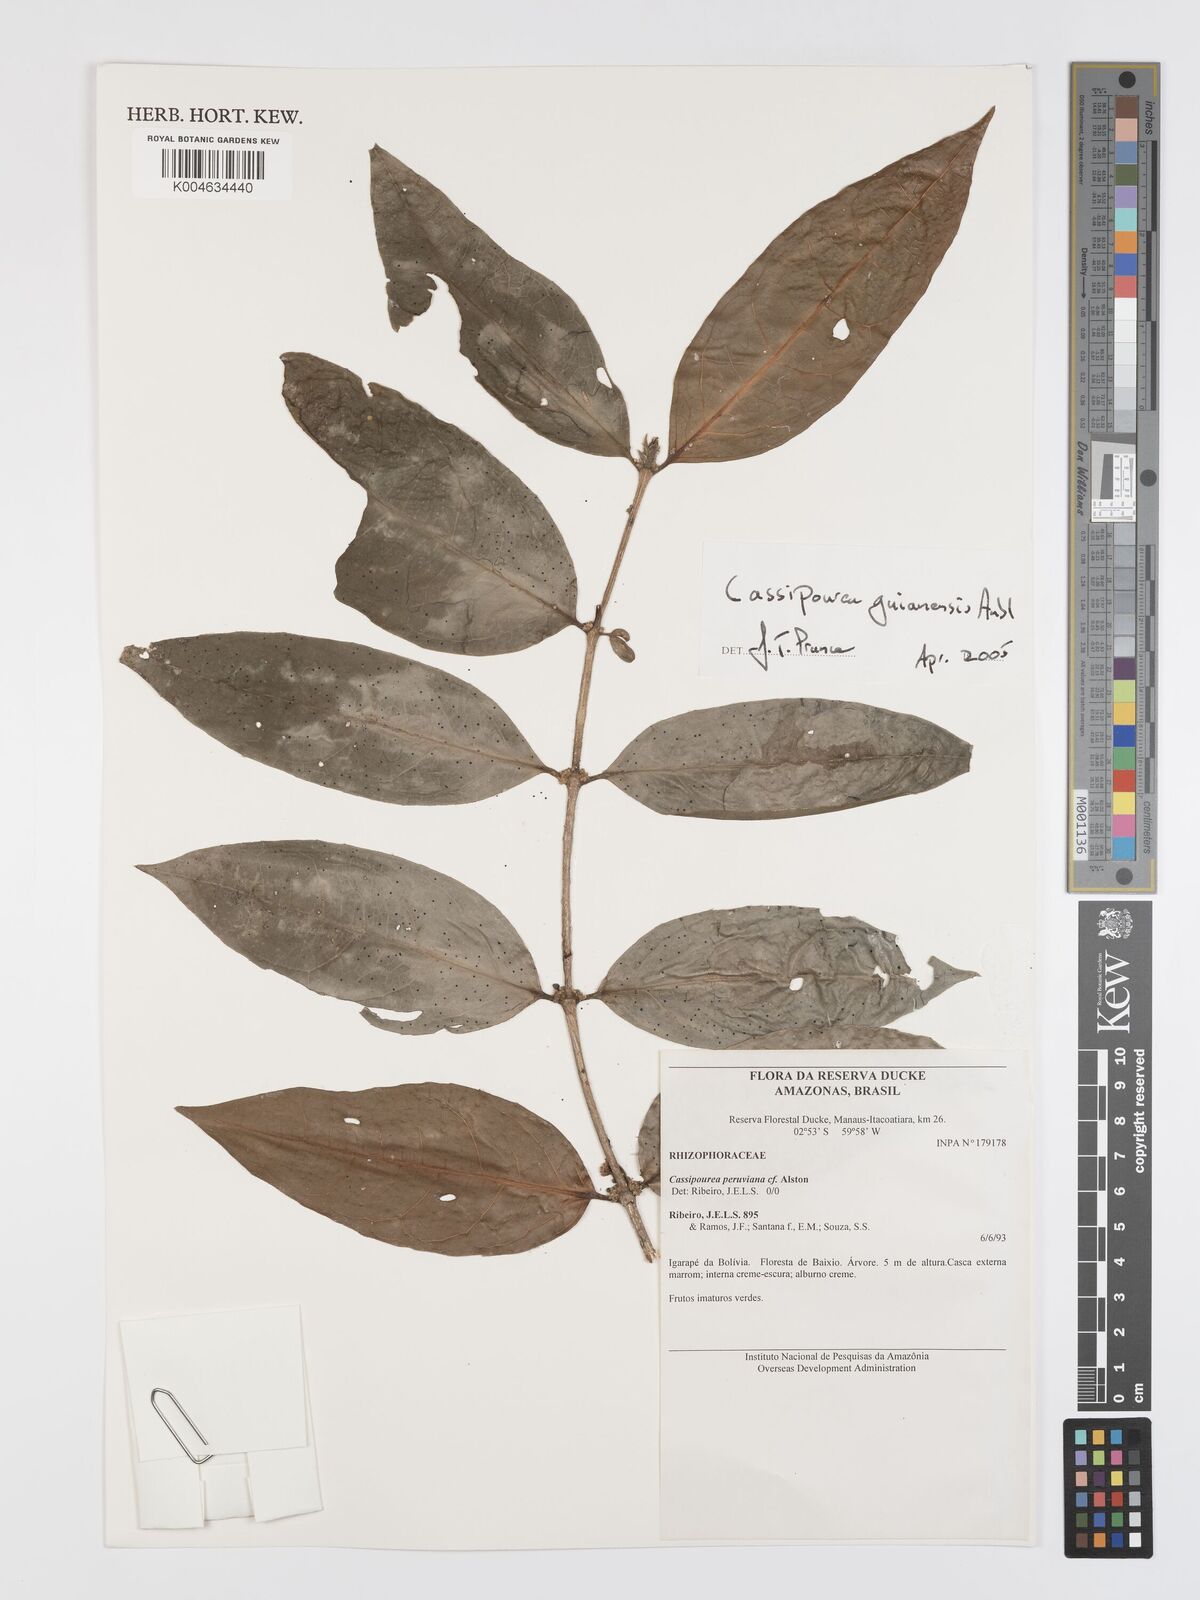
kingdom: Plantae
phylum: Tracheophyta
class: Magnoliopsida
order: Malpighiales
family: Rhizophoraceae
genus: Cassipourea
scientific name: Cassipourea guianensis
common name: Bastard waterwood
